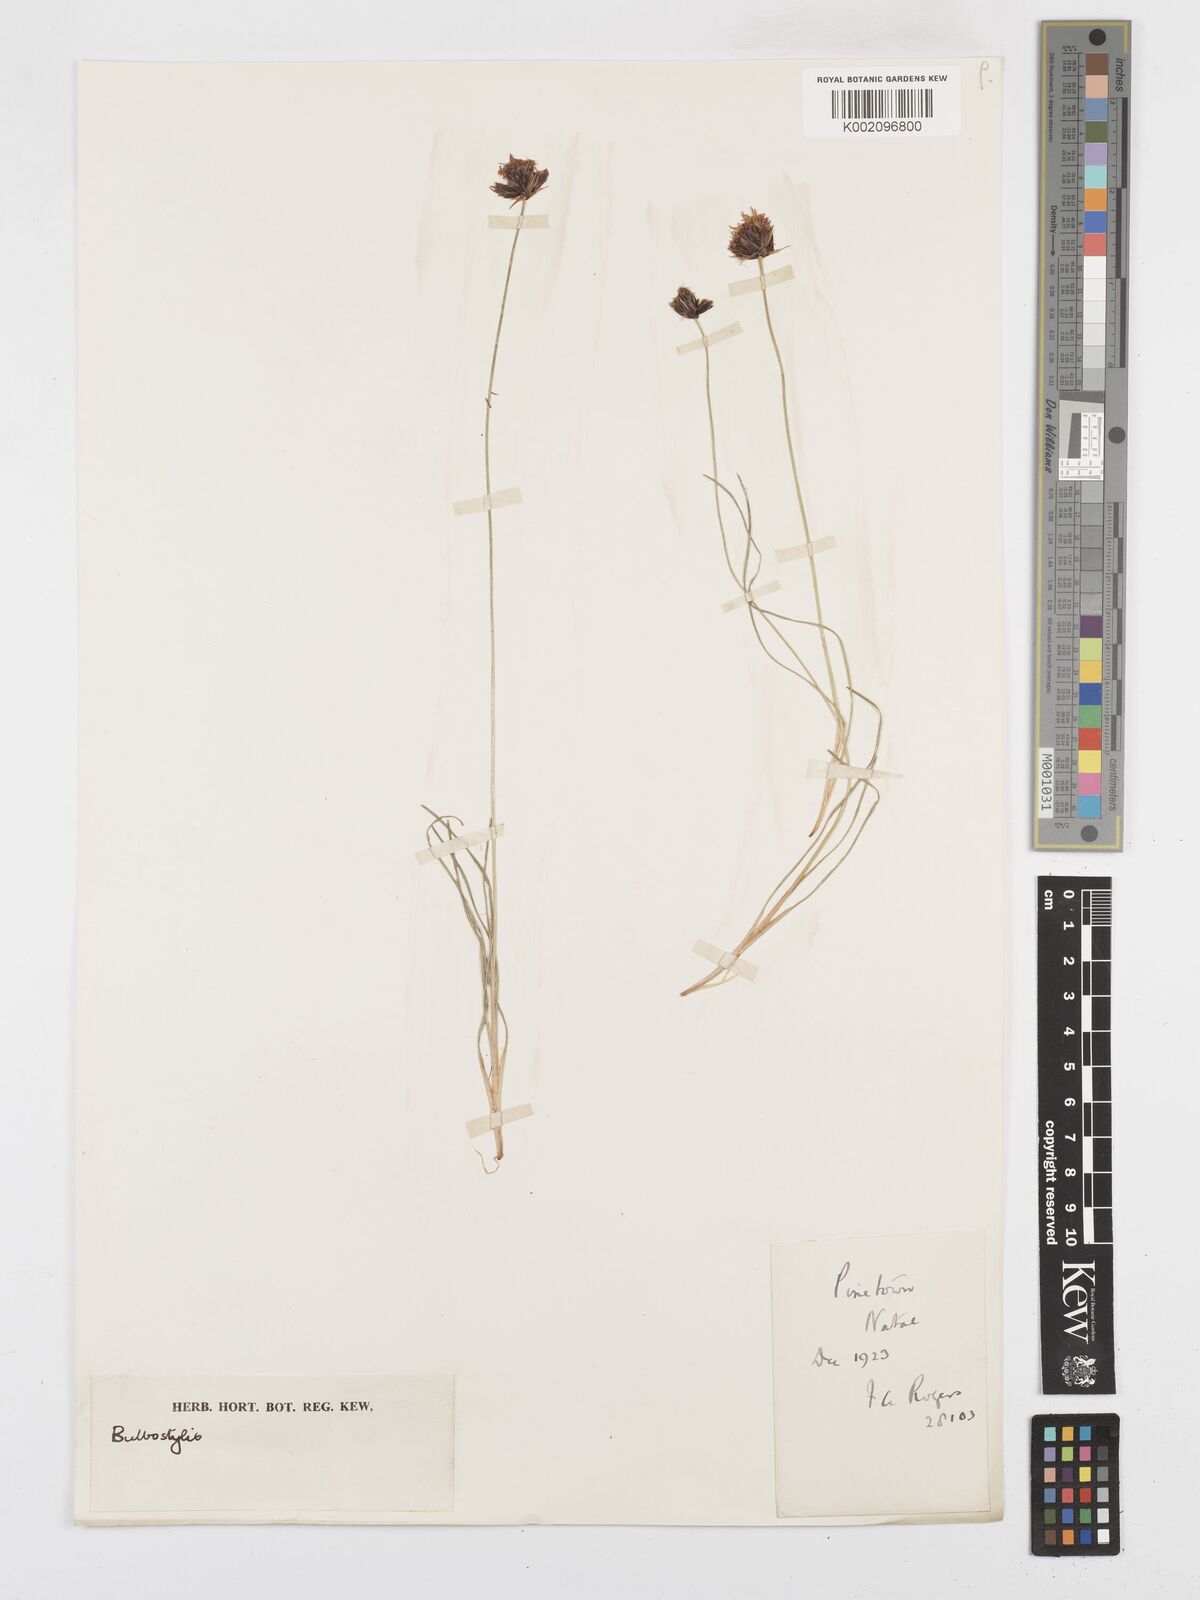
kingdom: Plantae
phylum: Tracheophyta
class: Liliopsida
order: Poales
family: Cyperaceae
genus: Bulbostylis
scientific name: Bulbostylis
